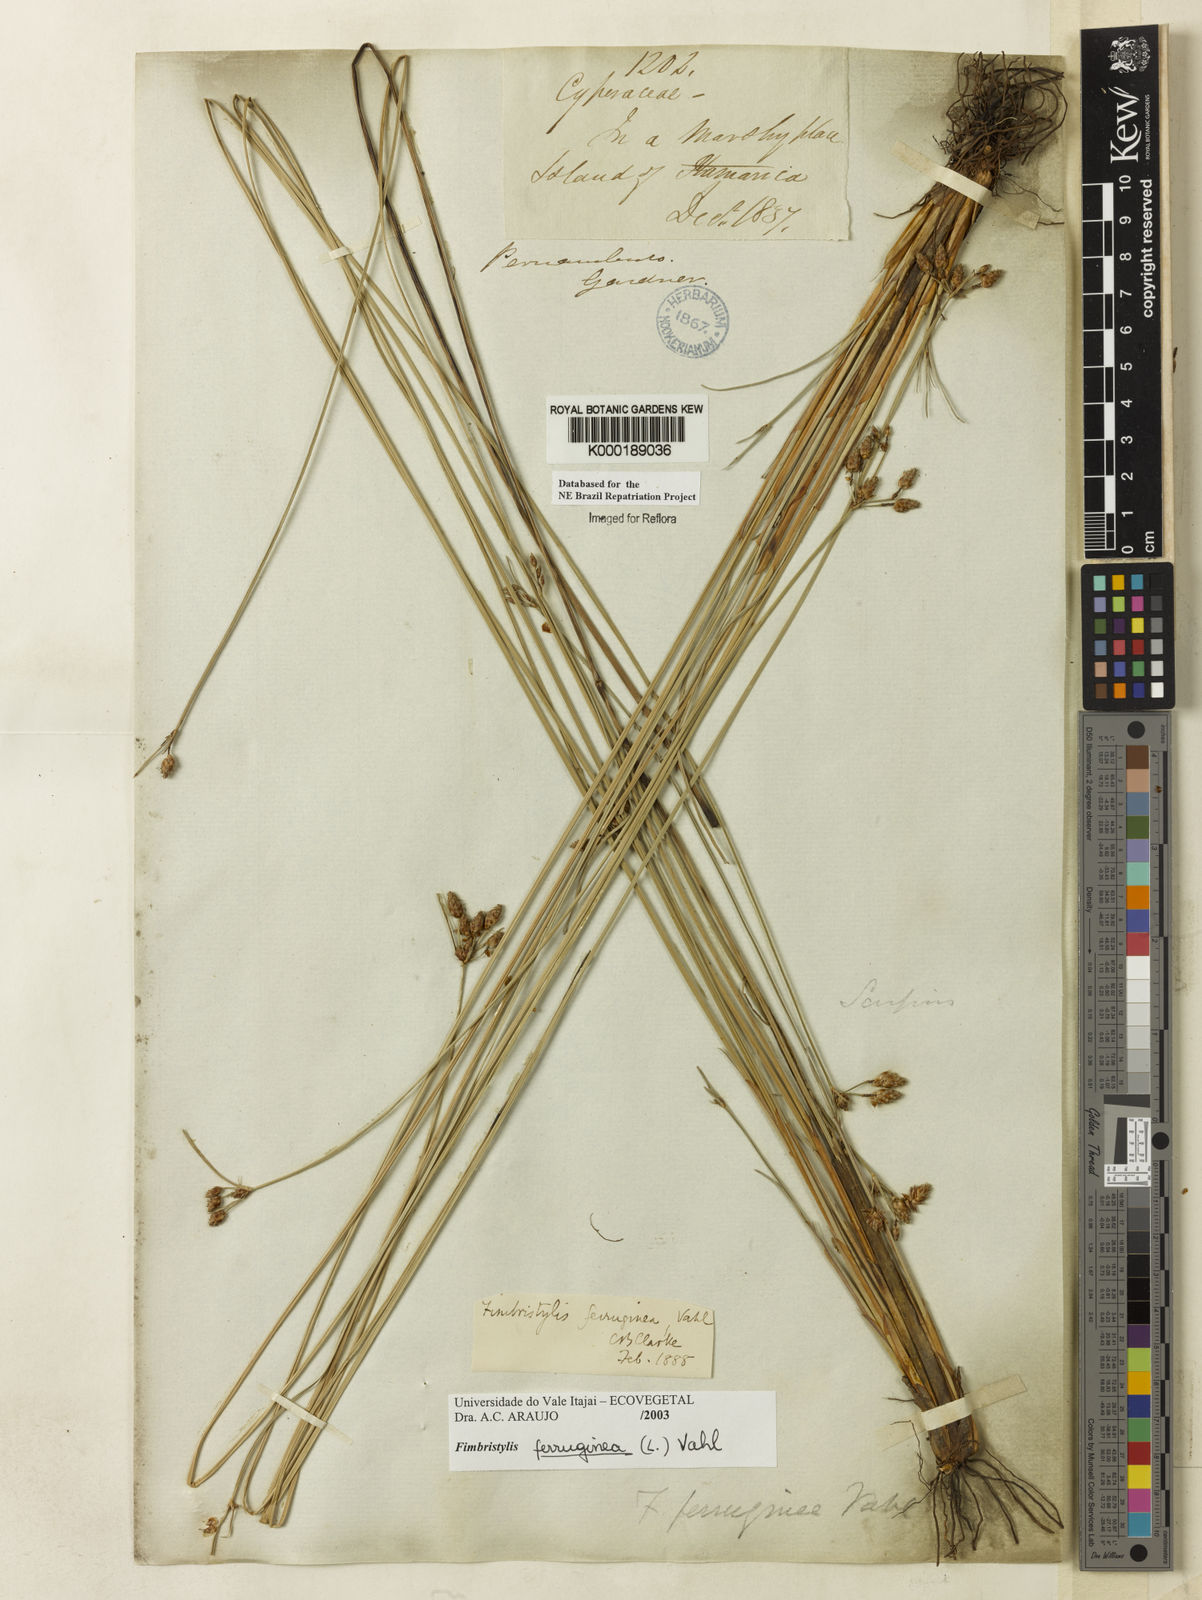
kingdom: Plantae
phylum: Tracheophyta
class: Liliopsida
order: Poales
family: Cyperaceae
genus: Fimbristylis
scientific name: Fimbristylis ferruginea
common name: West indian fimbry
